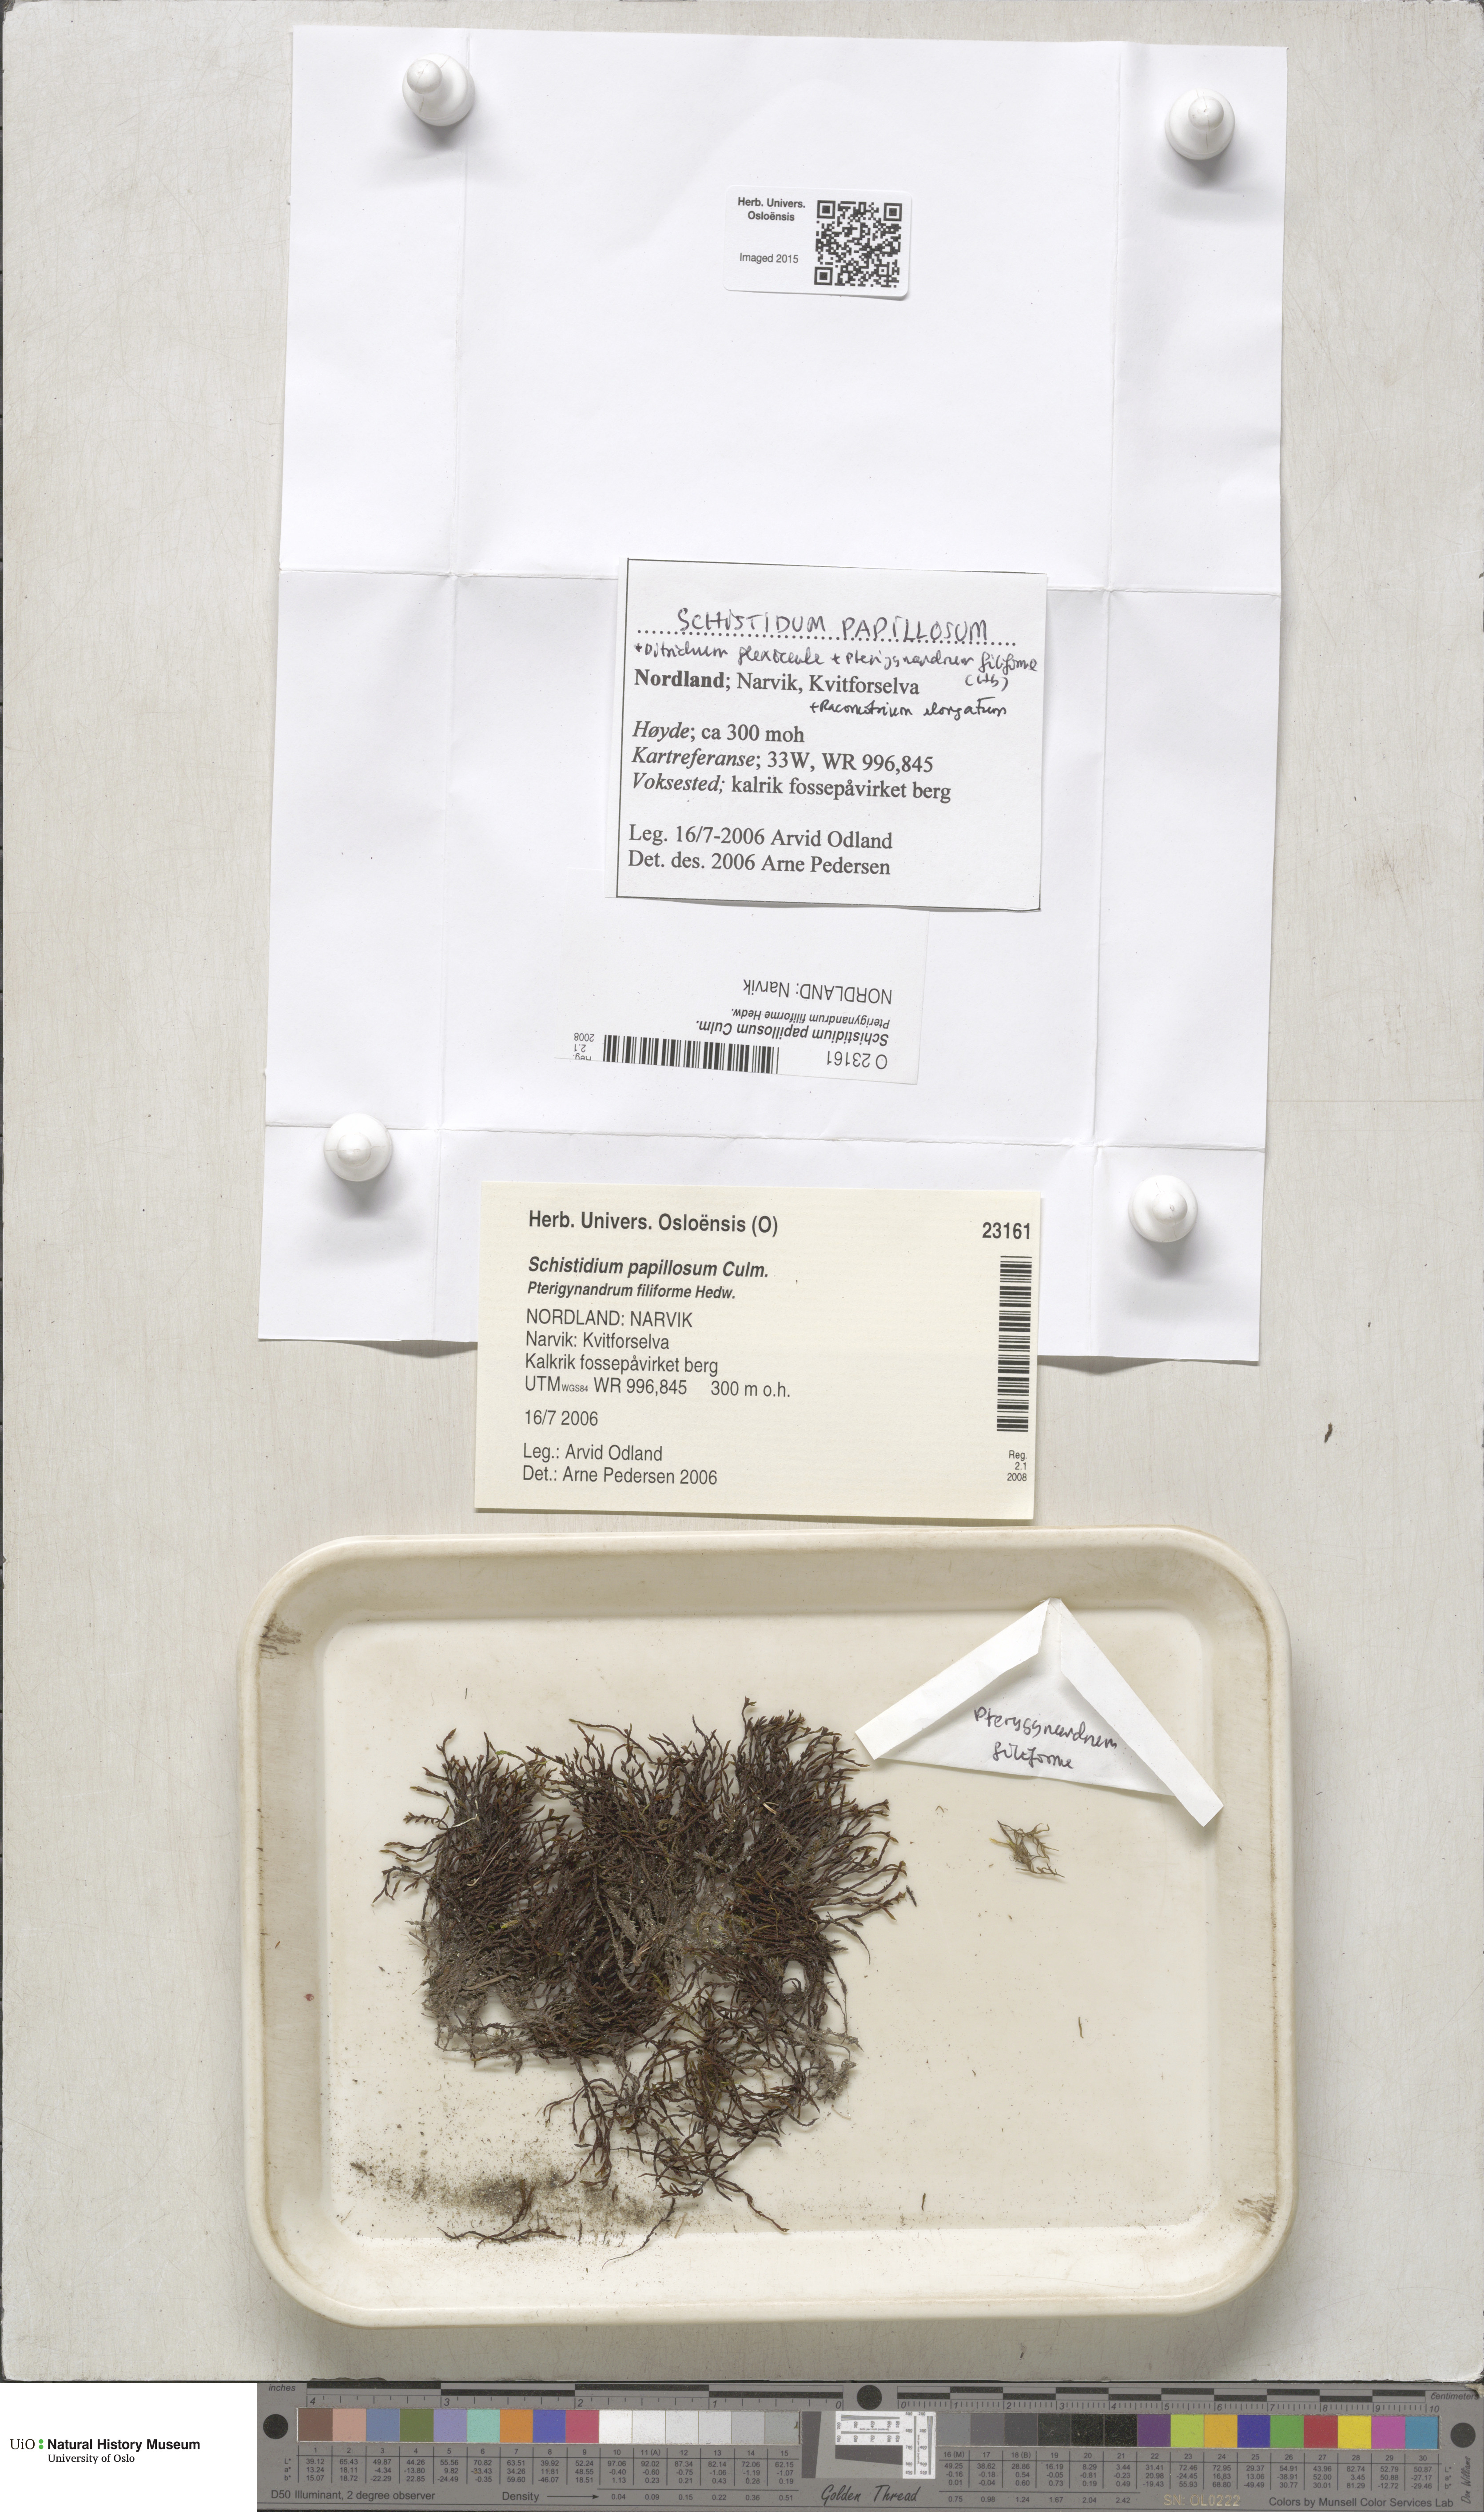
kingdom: Plantae
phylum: Bryophyta
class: Bryopsida
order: Grimmiales
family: Grimmiaceae
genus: Schistidium
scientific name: Schistidium papillosum
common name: Papillose bloom moss
